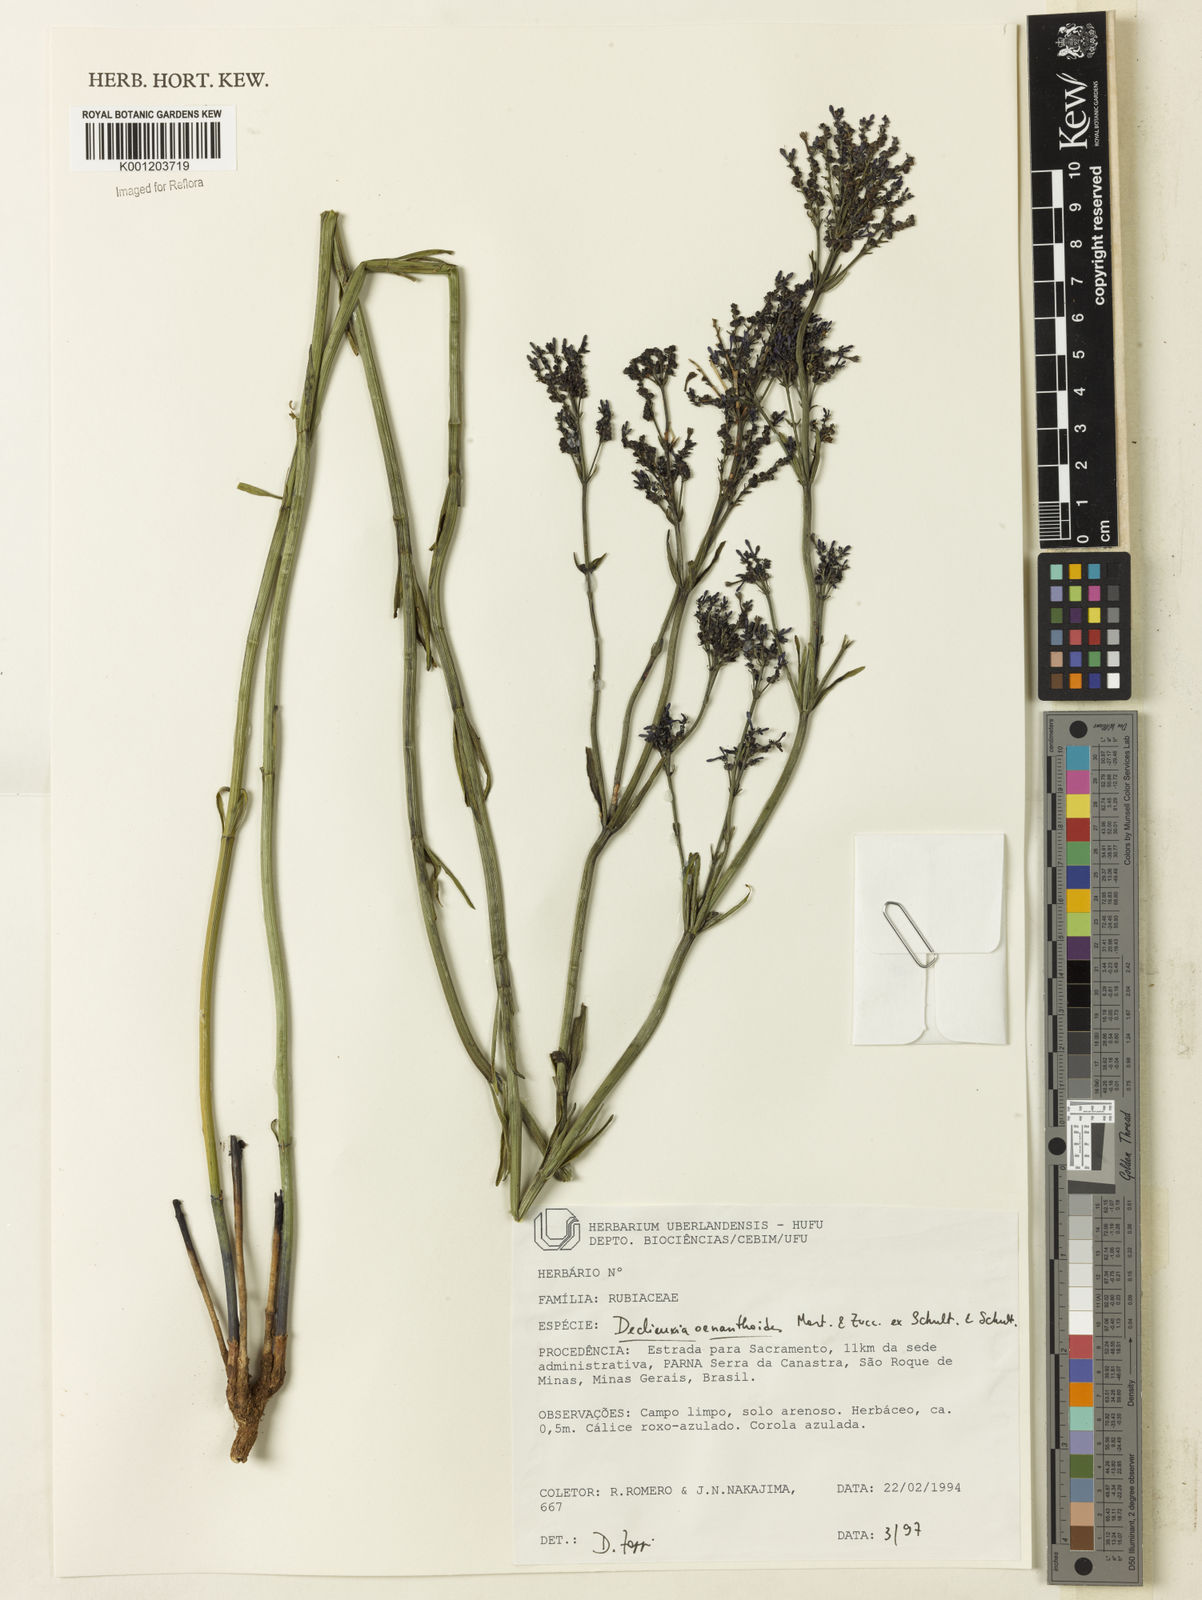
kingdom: Plantae
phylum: Tracheophyta
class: Magnoliopsida
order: Gentianales
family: Rubiaceae
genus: Declieuxia
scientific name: Declieuxia
